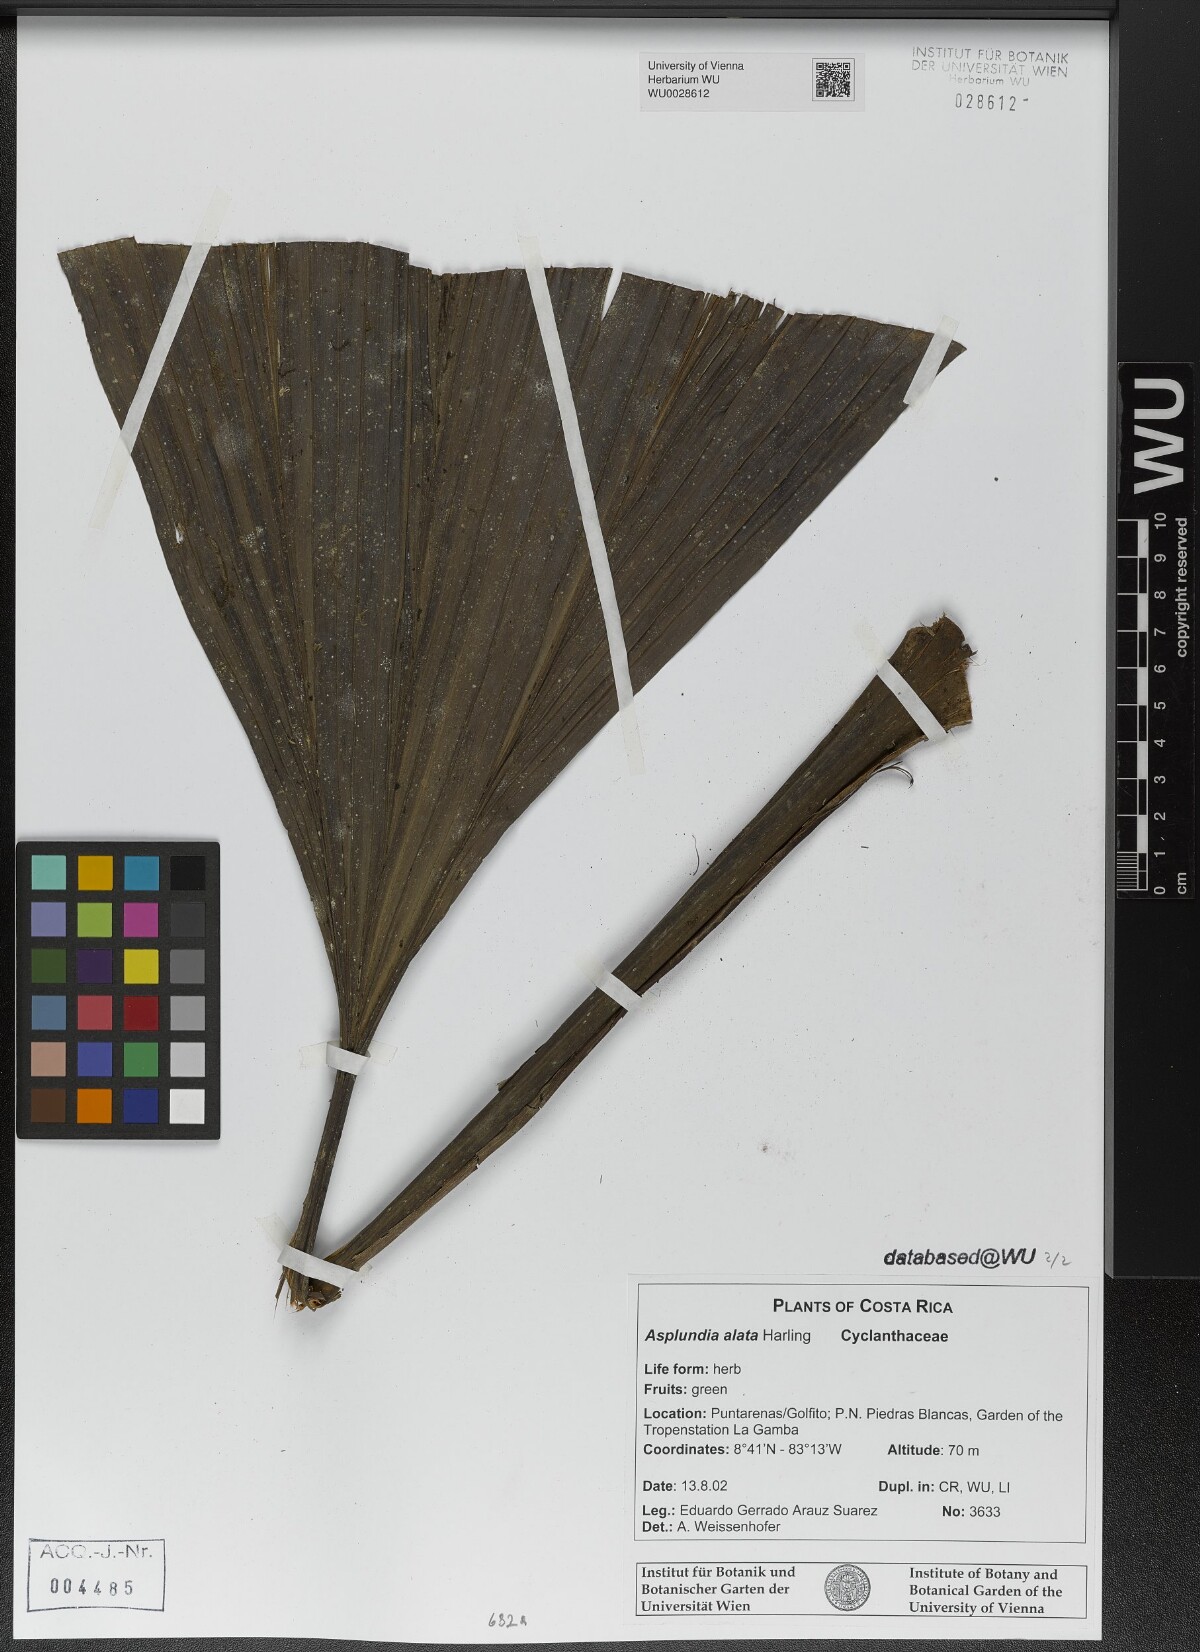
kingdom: Plantae
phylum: Tracheophyta
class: Liliopsida
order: Pandanales
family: Cyclanthaceae
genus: Asplundia
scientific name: Asplundia alata
